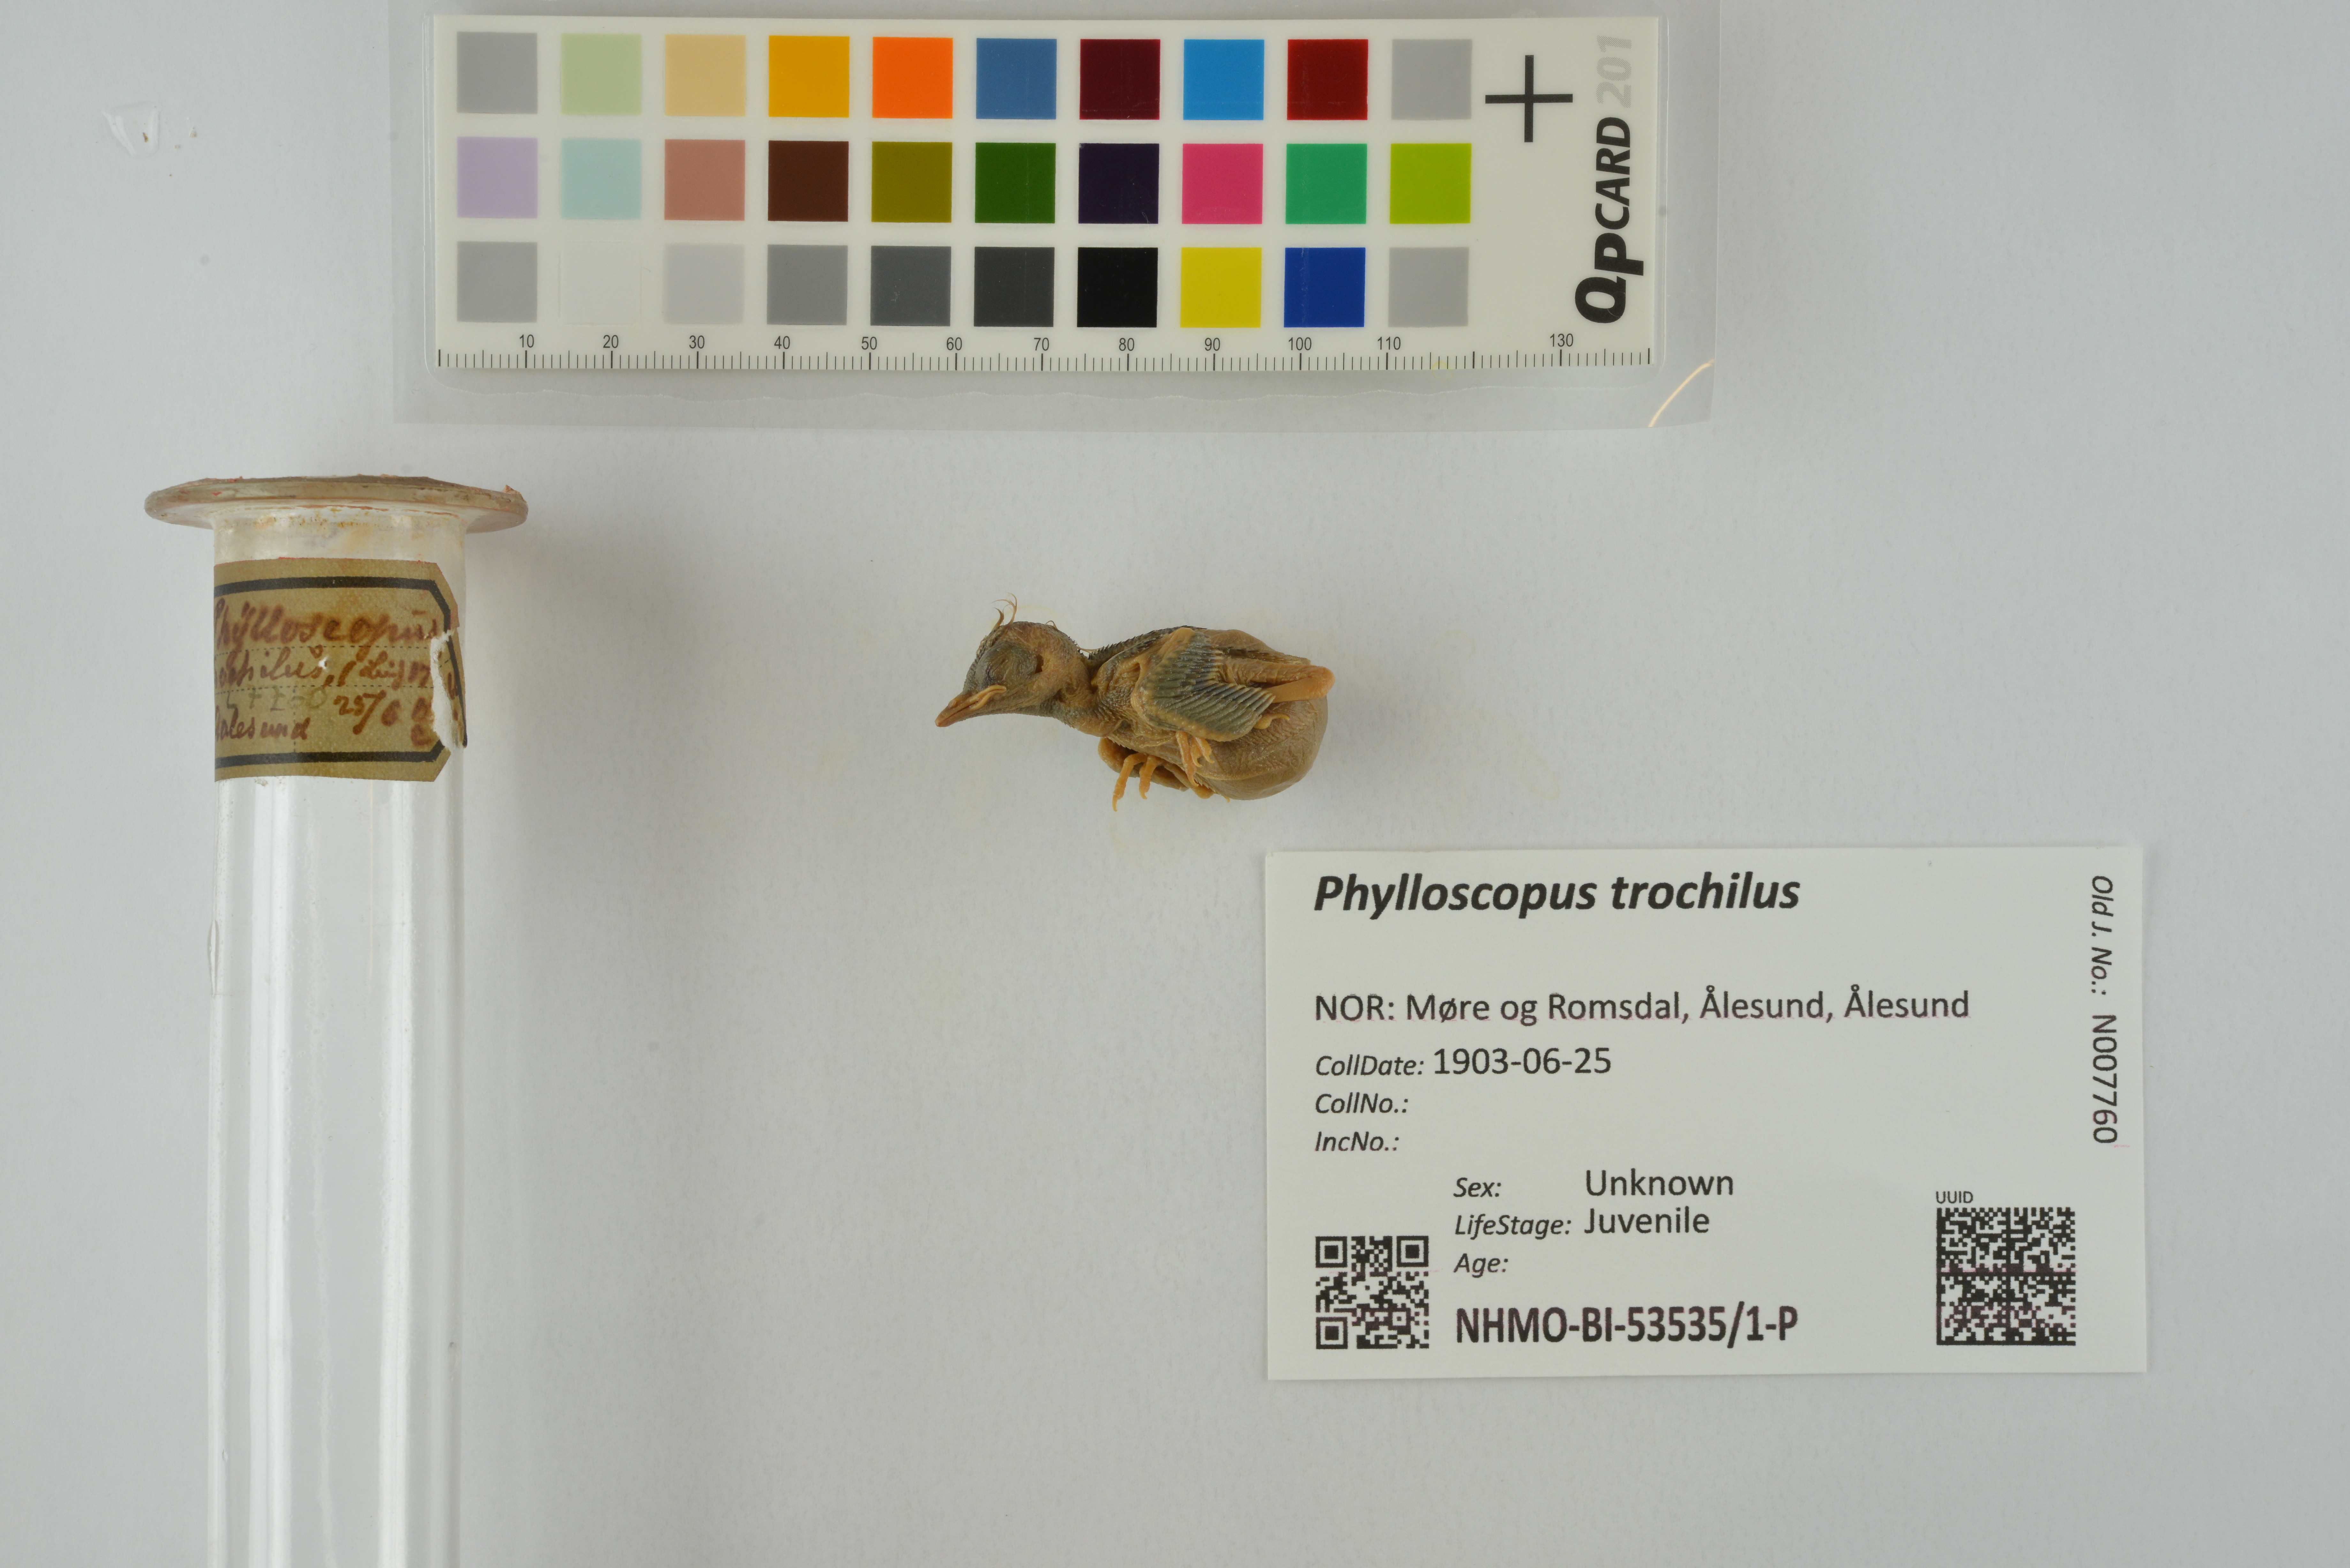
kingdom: Animalia
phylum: Chordata
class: Aves
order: Passeriformes
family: Phylloscopidae
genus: Phylloscopus
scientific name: Phylloscopus trochilus
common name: Willow warbler
